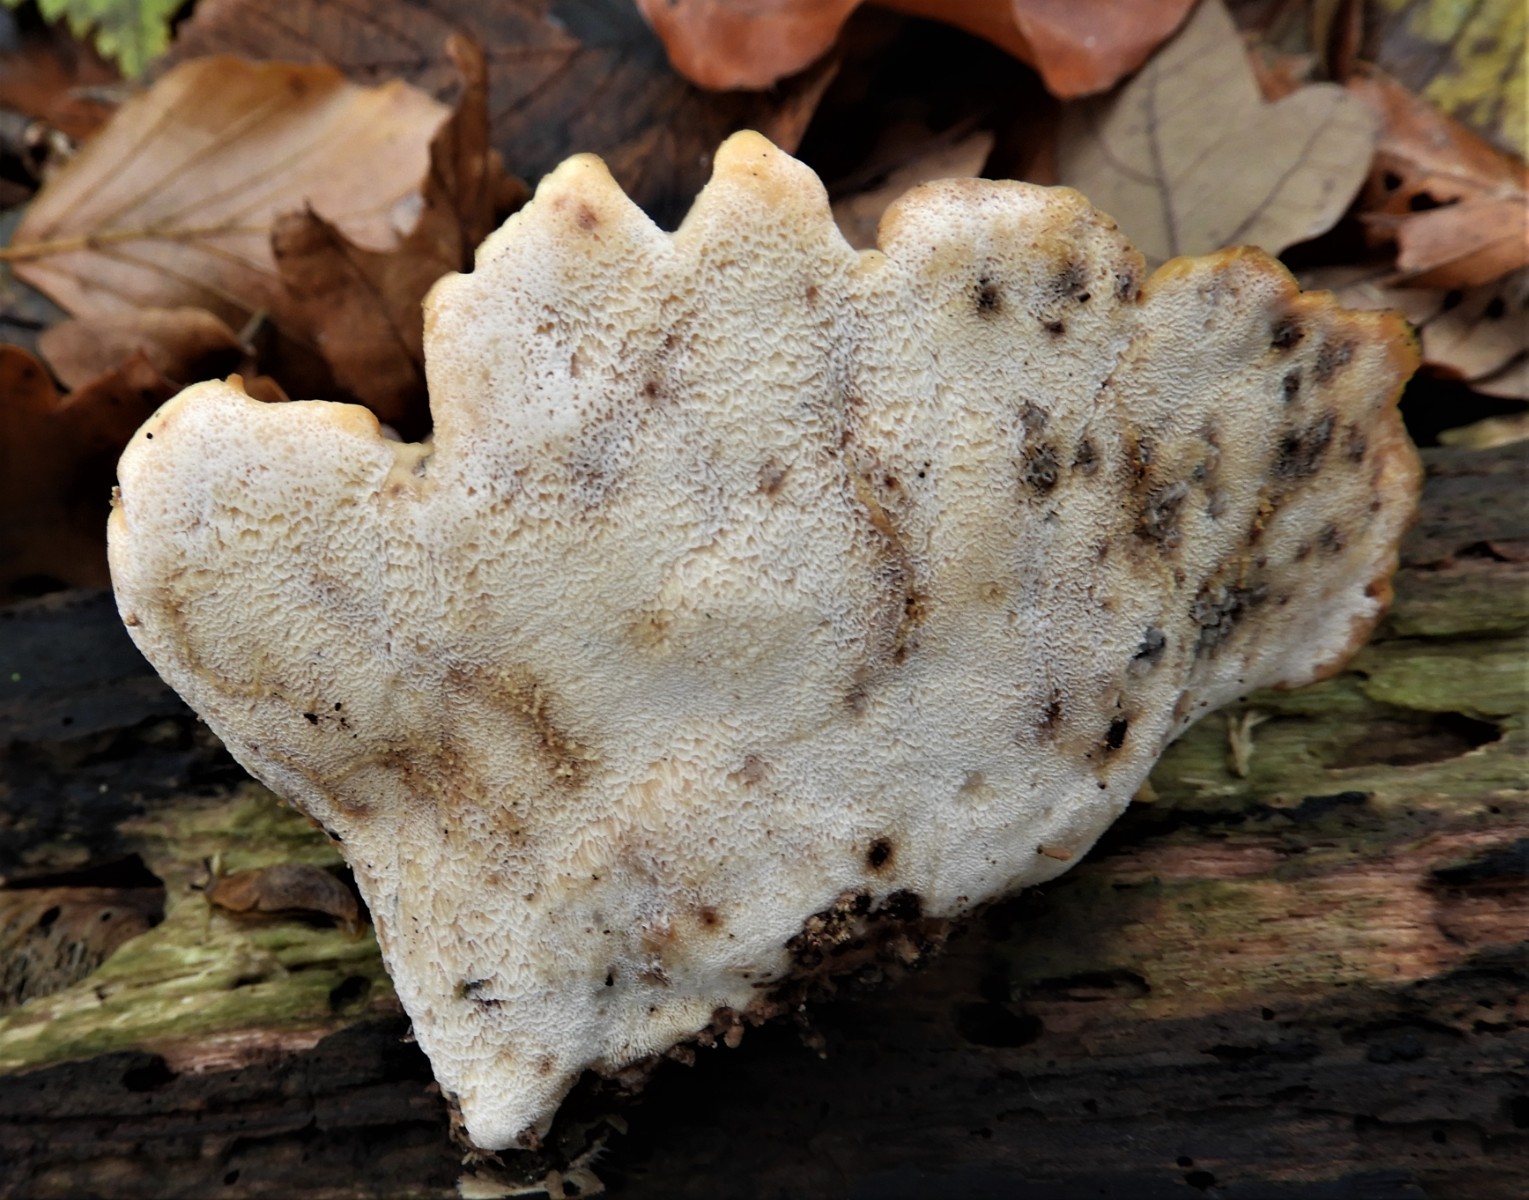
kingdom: Fungi
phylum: Basidiomycota
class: Agaricomycetes
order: Polyporales
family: Polyporaceae
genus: Picipes
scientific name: Picipes badius
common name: kastaniebrun stilkporesvamp
